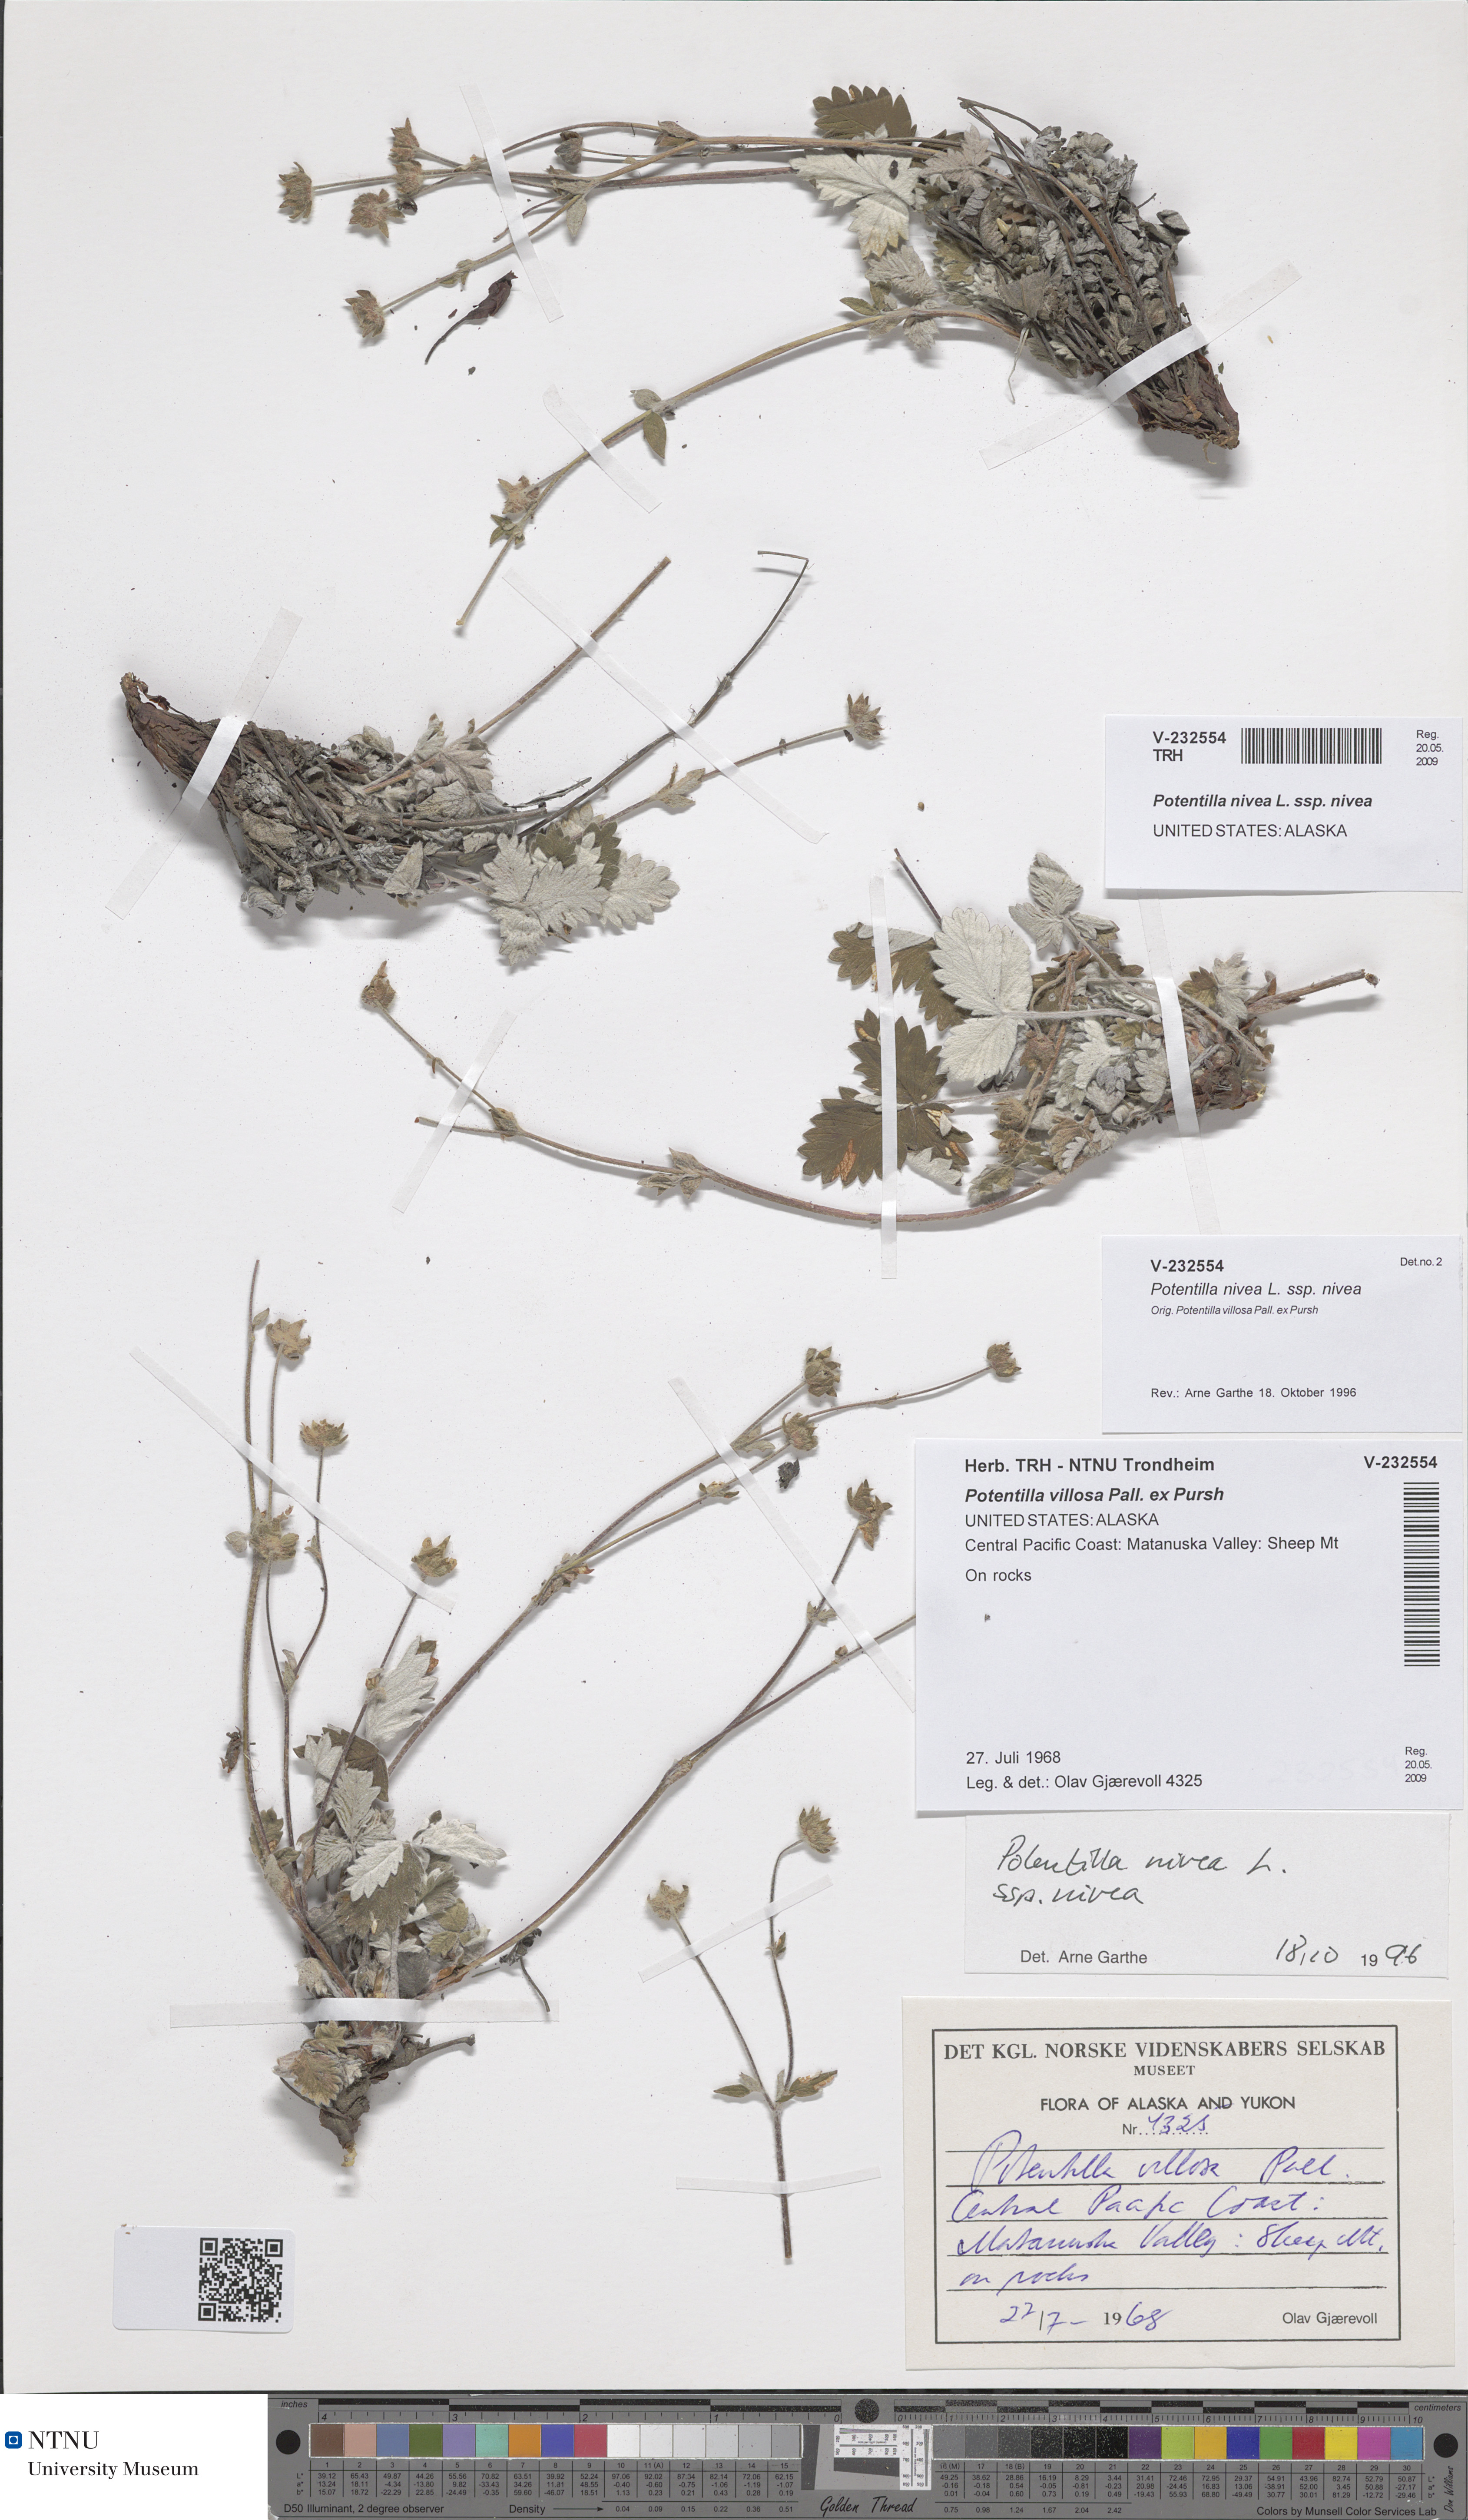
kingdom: Plantae
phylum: Tracheophyta
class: Magnoliopsida
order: Rosales
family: Rosaceae
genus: Potentilla
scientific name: Potentilla nivea
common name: Snow cinquefoil
